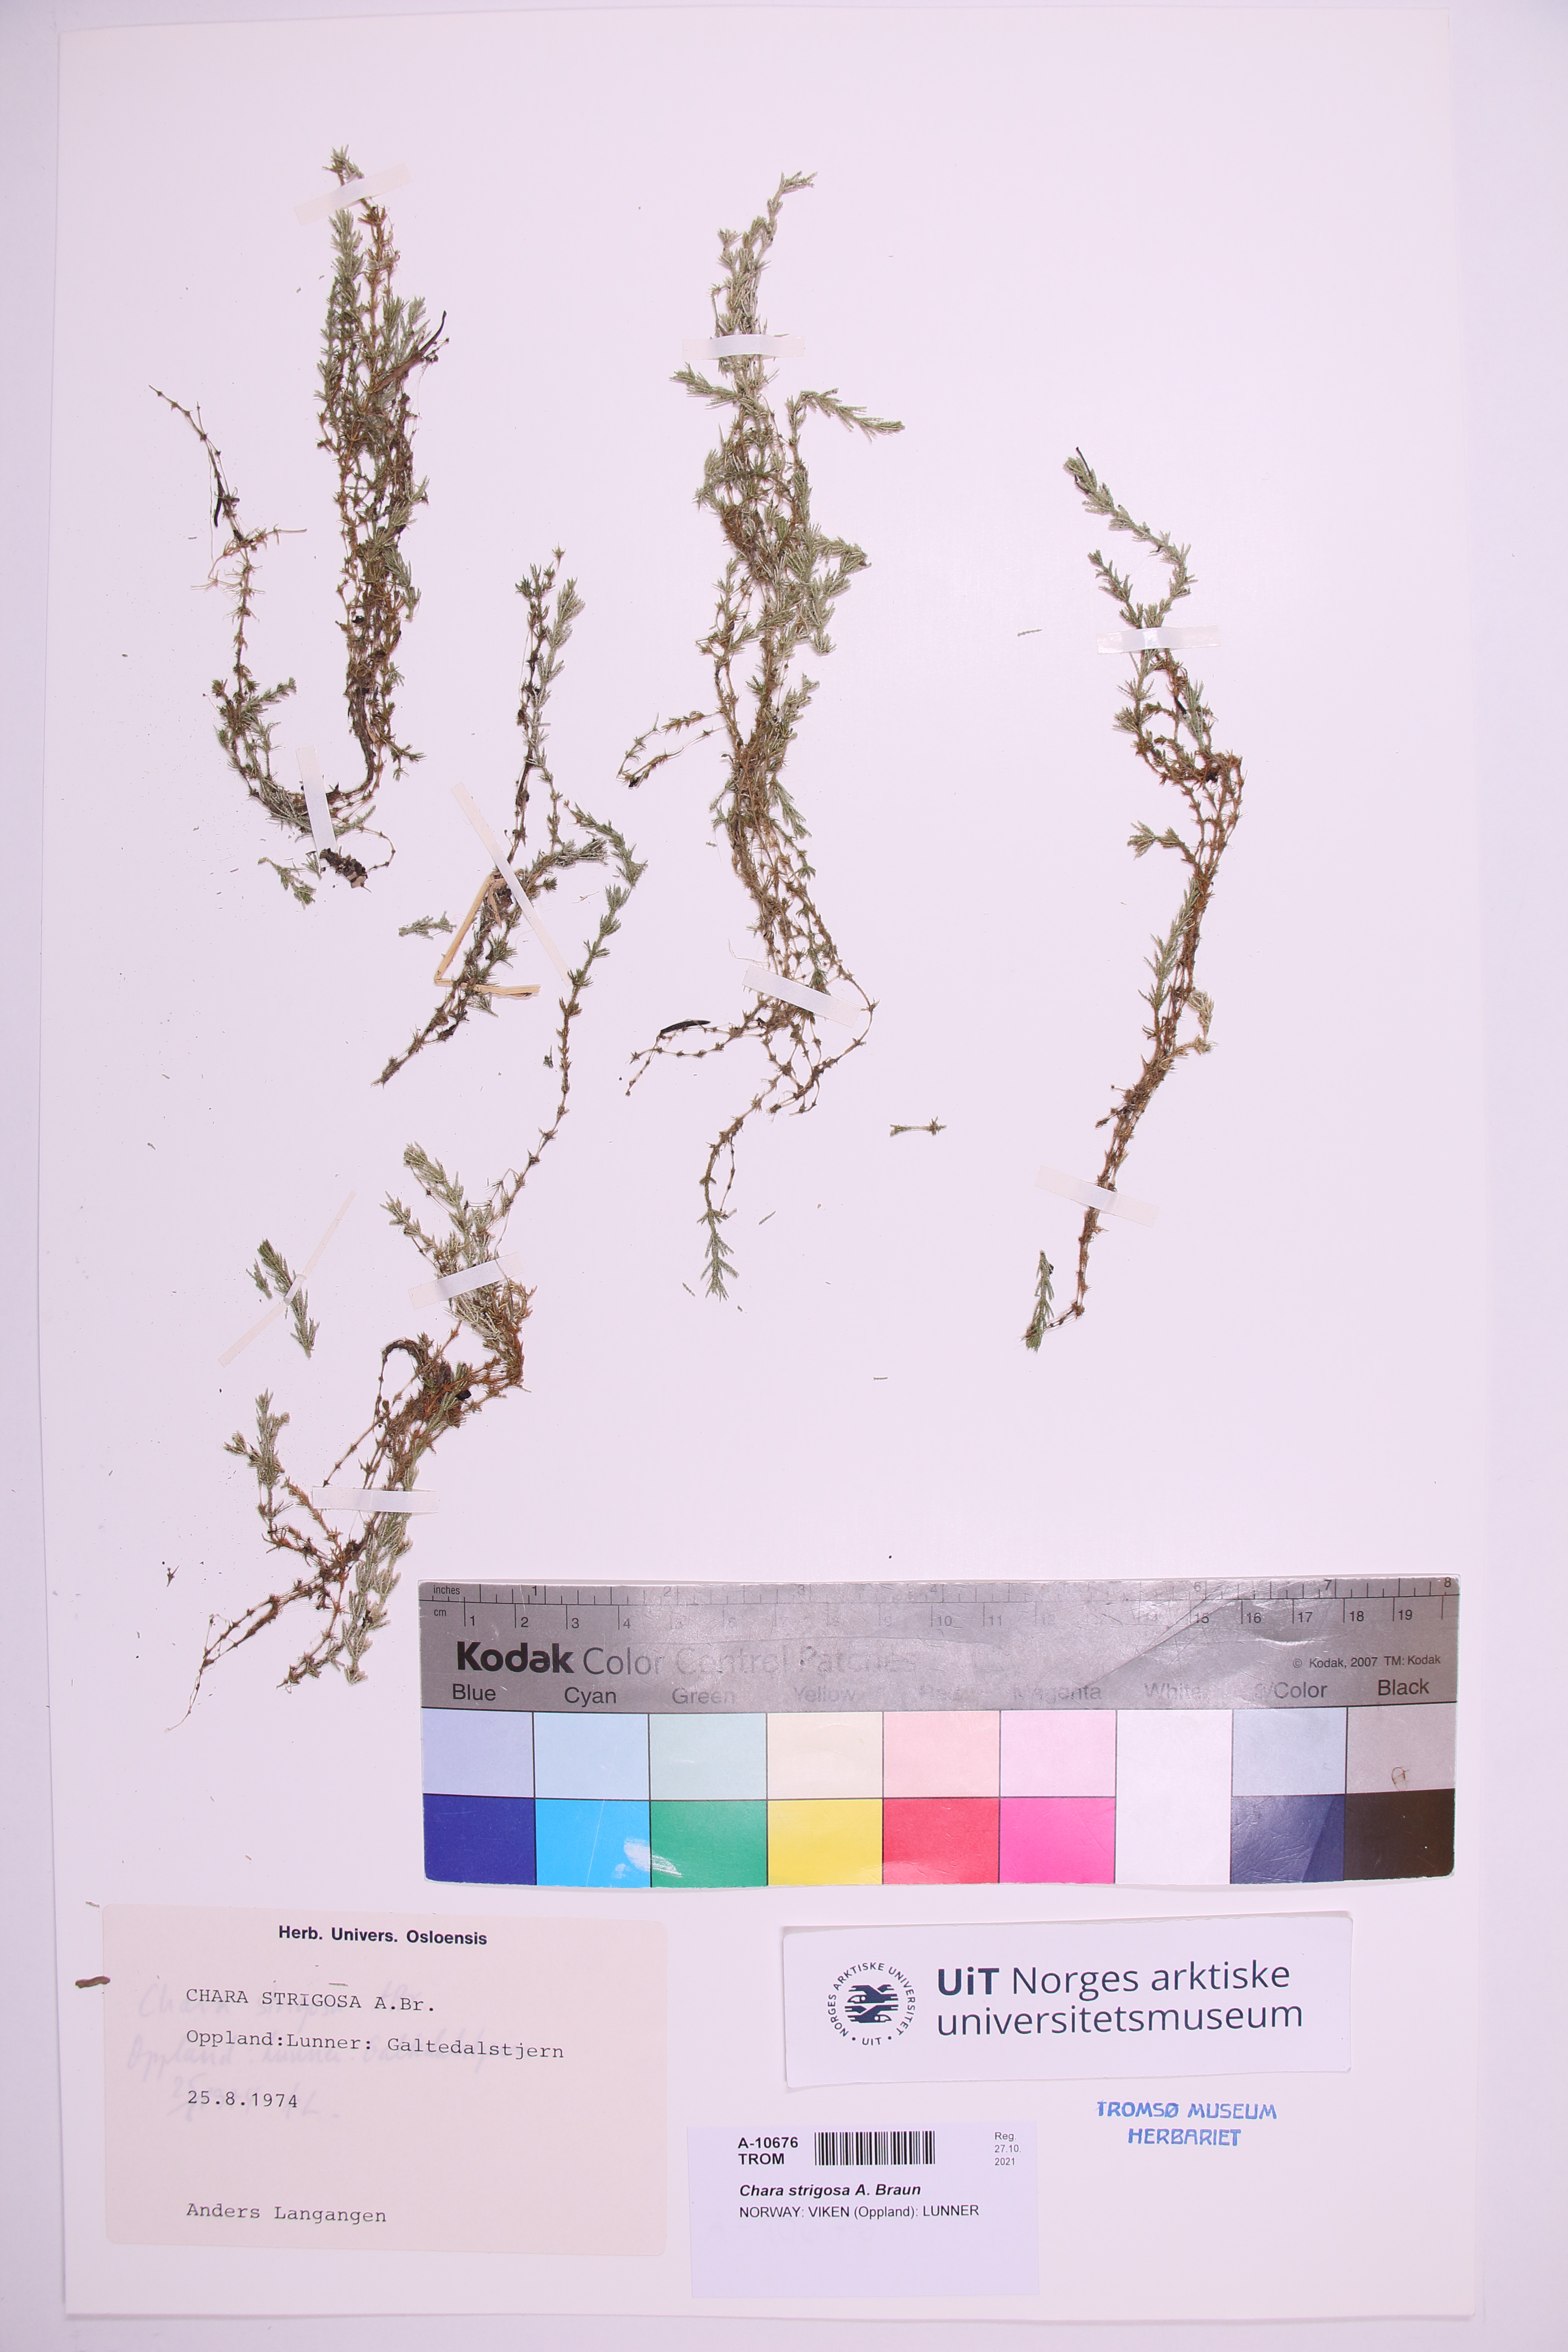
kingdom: Plantae
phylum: Charophyta
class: Charophyceae
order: Charales
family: Characeae
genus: Chara
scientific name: Chara strigosa
